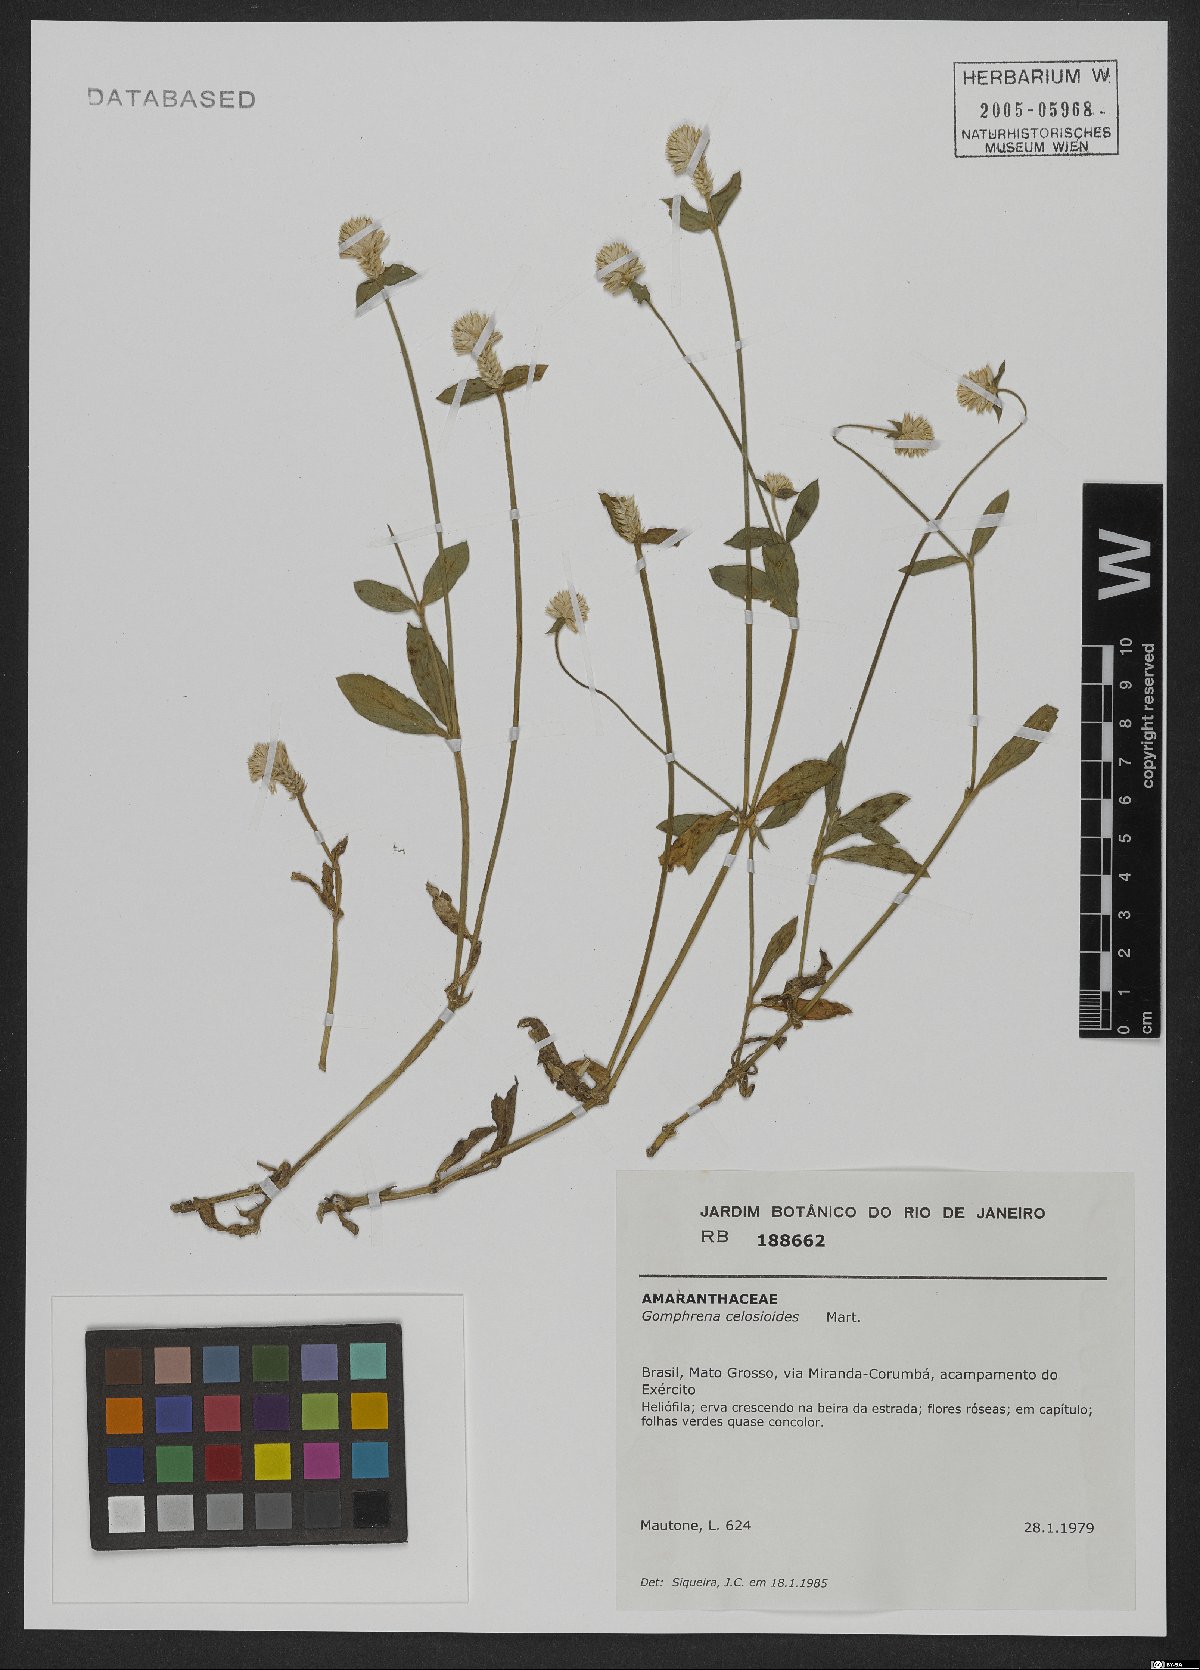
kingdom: Plantae
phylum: Tracheophyta
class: Magnoliopsida
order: Caryophyllales
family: Amaranthaceae
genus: Gomphrena
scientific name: Gomphrena celosioides
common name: Gomphrena-weed
